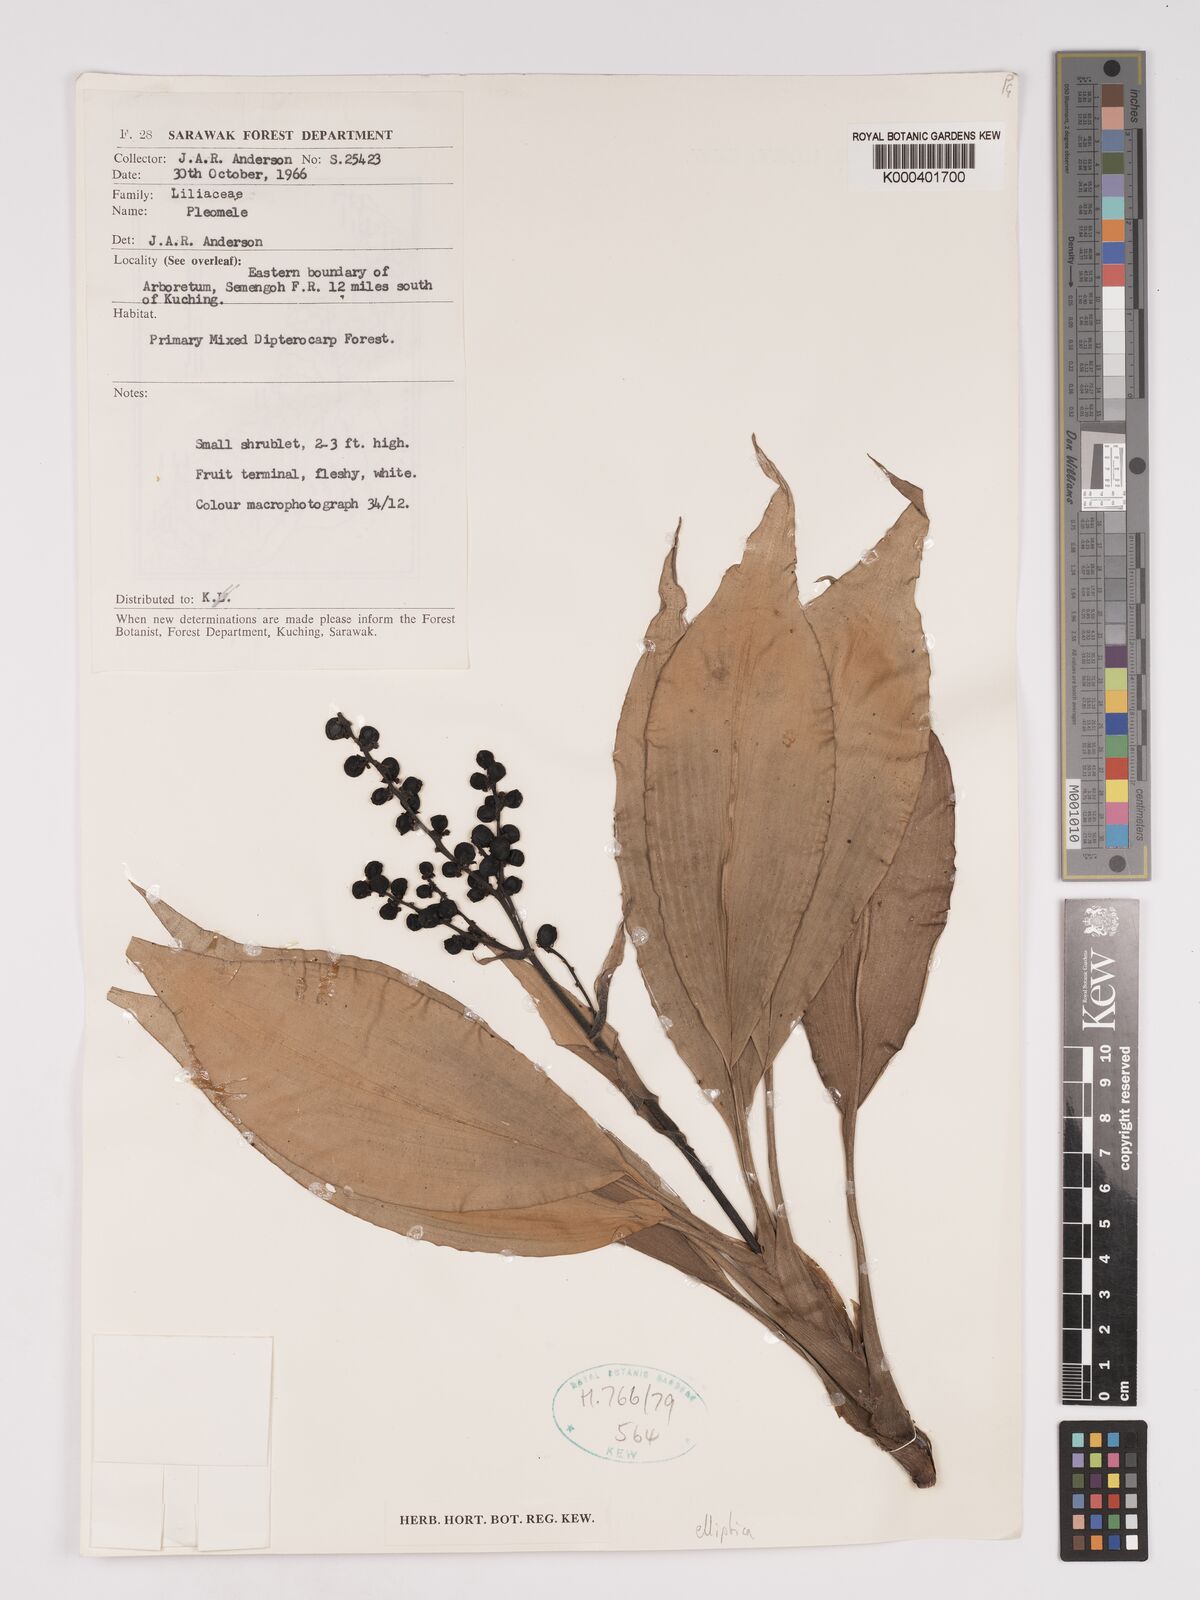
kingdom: Plantae
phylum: Tracheophyta
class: Liliopsida
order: Asparagales
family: Asparagaceae
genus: Dracaena
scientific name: Dracaena elliptica
